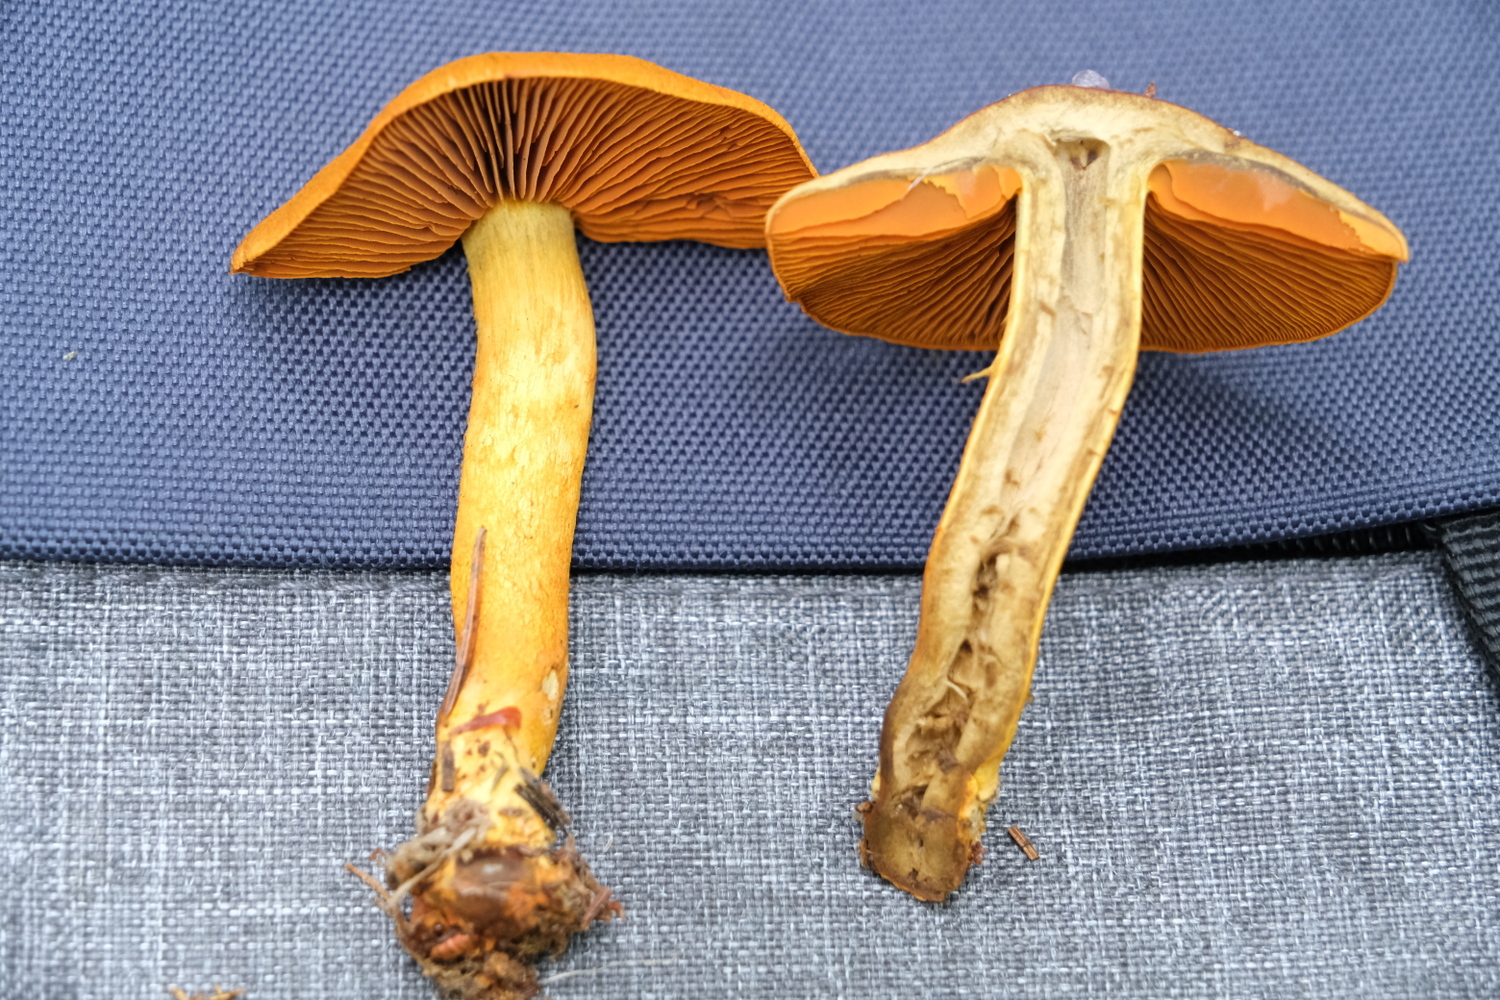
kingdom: Fungi
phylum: Basidiomycota
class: Agaricomycetes
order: Agaricales
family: Cortinariaceae
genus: Cortinarius
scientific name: Cortinarius malicorius
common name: grønkødet slørhat
